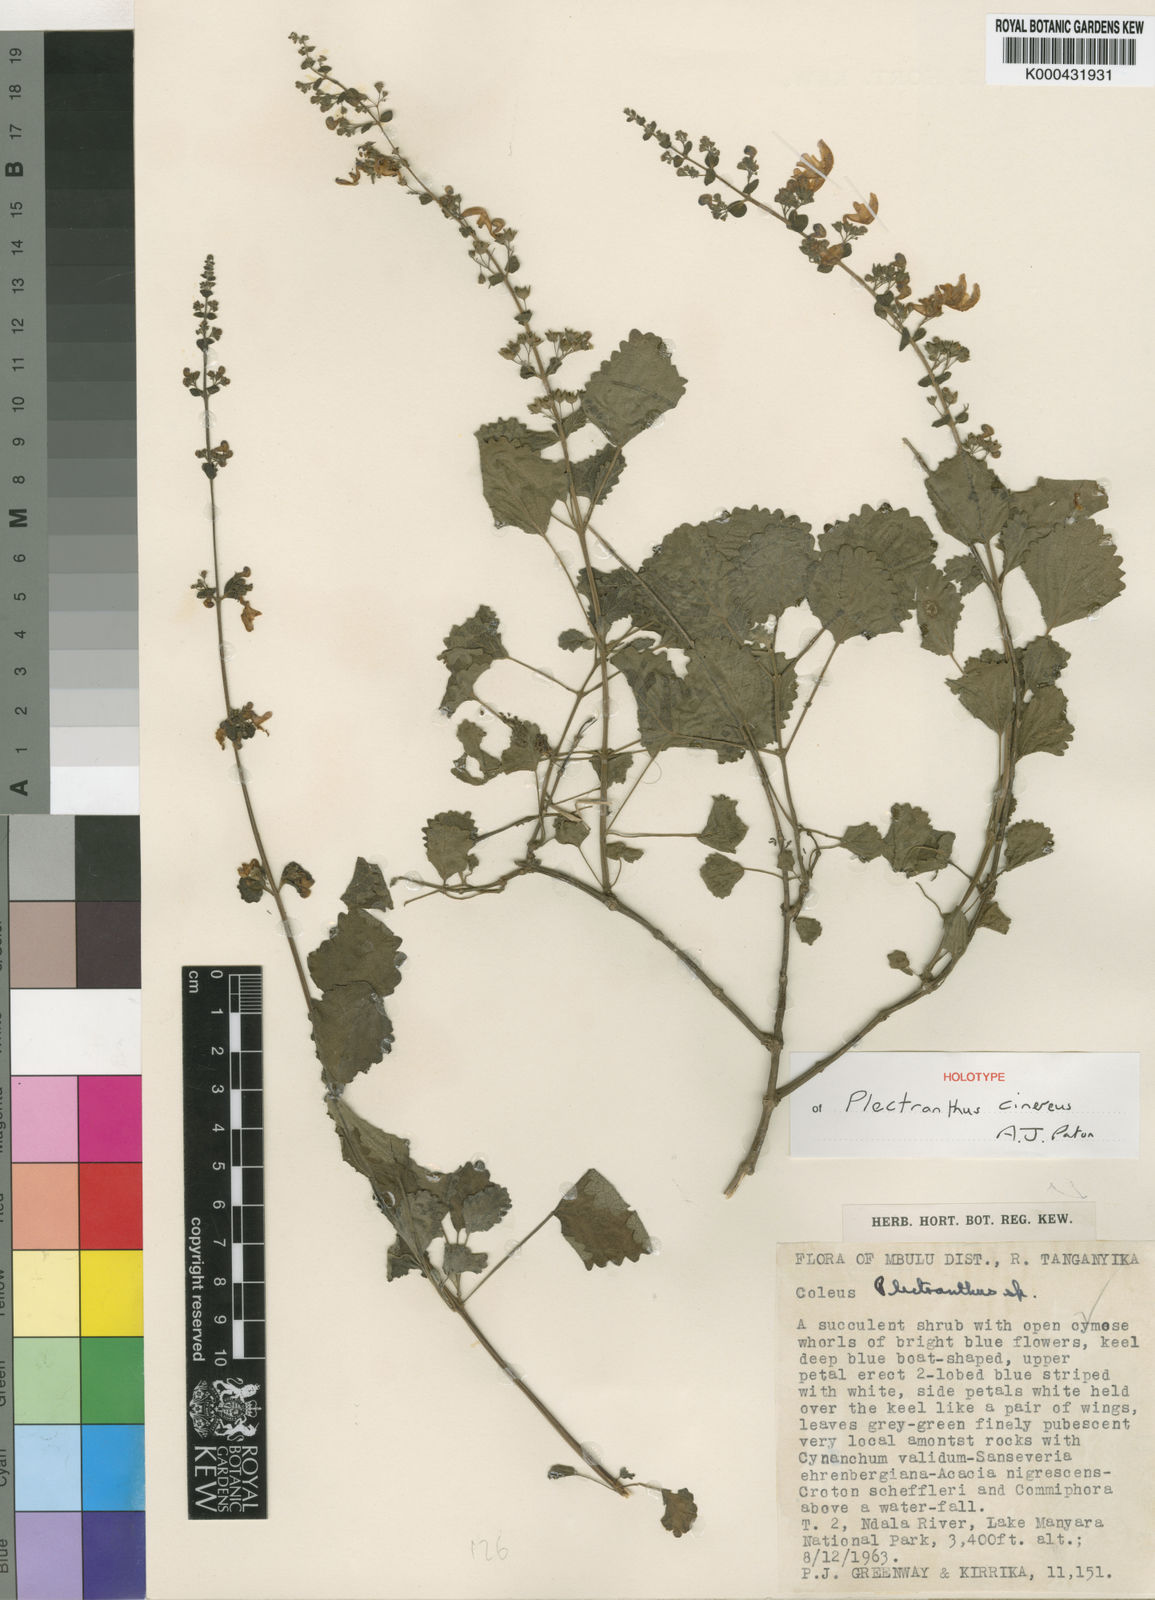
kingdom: Plantae
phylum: Tracheophyta
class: Magnoliopsida
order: Lamiales
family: Lamiaceae
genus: Equilabium
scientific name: Equilabium cinereum
